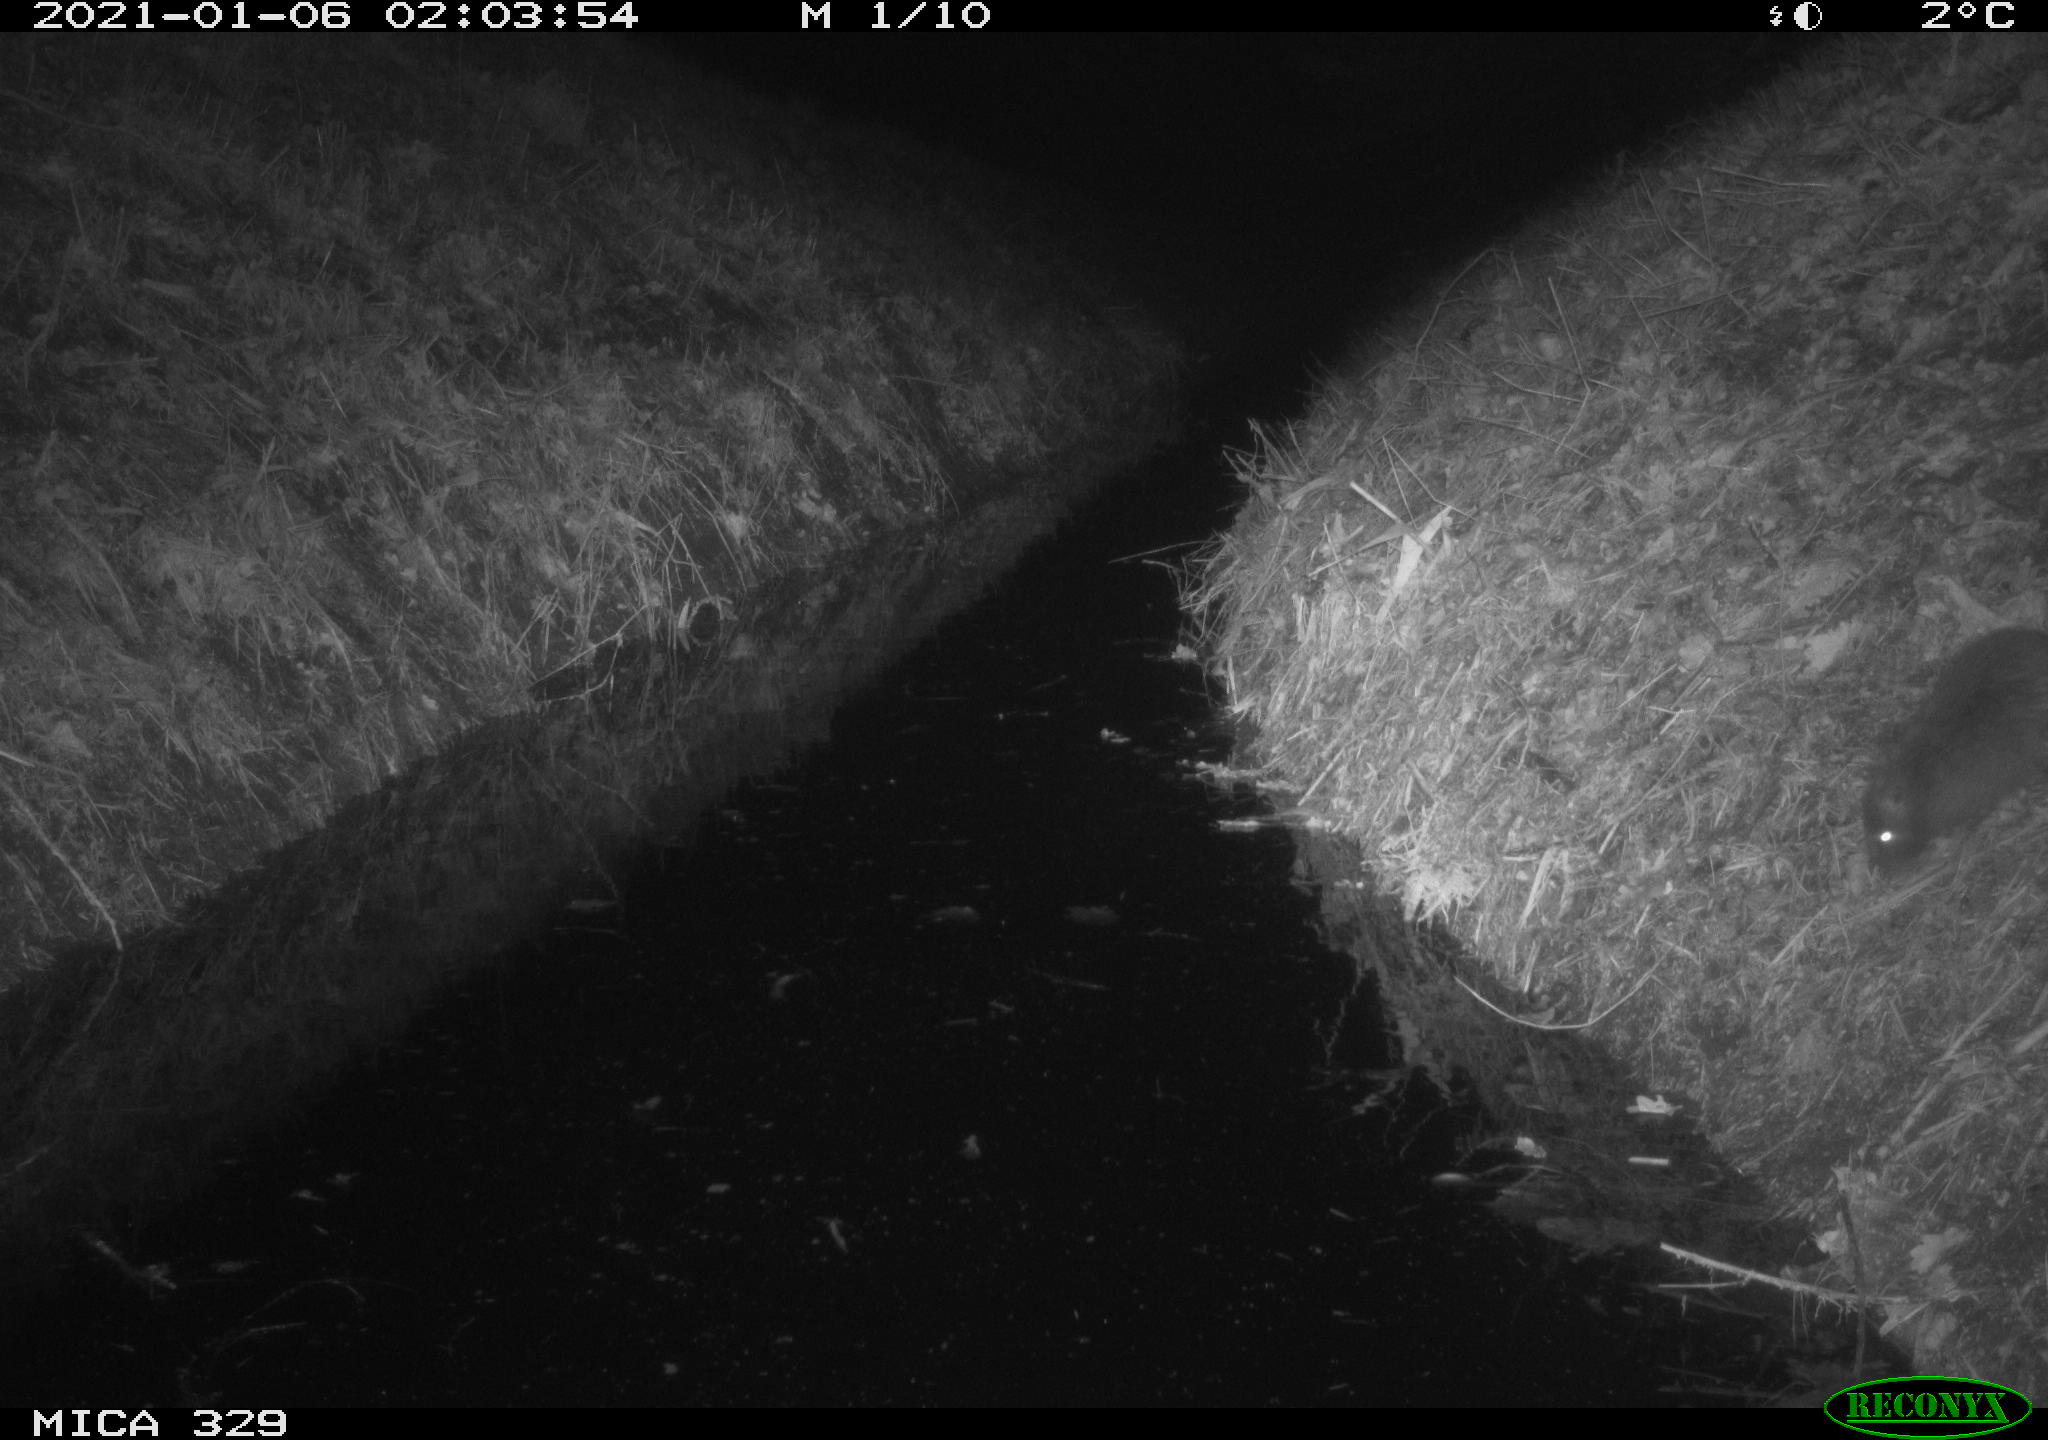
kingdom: Animalia
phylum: Chordata
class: Mammalia
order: Rodentia
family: Myocastoridae
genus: Myocastor
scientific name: Myocastor coypus
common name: Coypu
